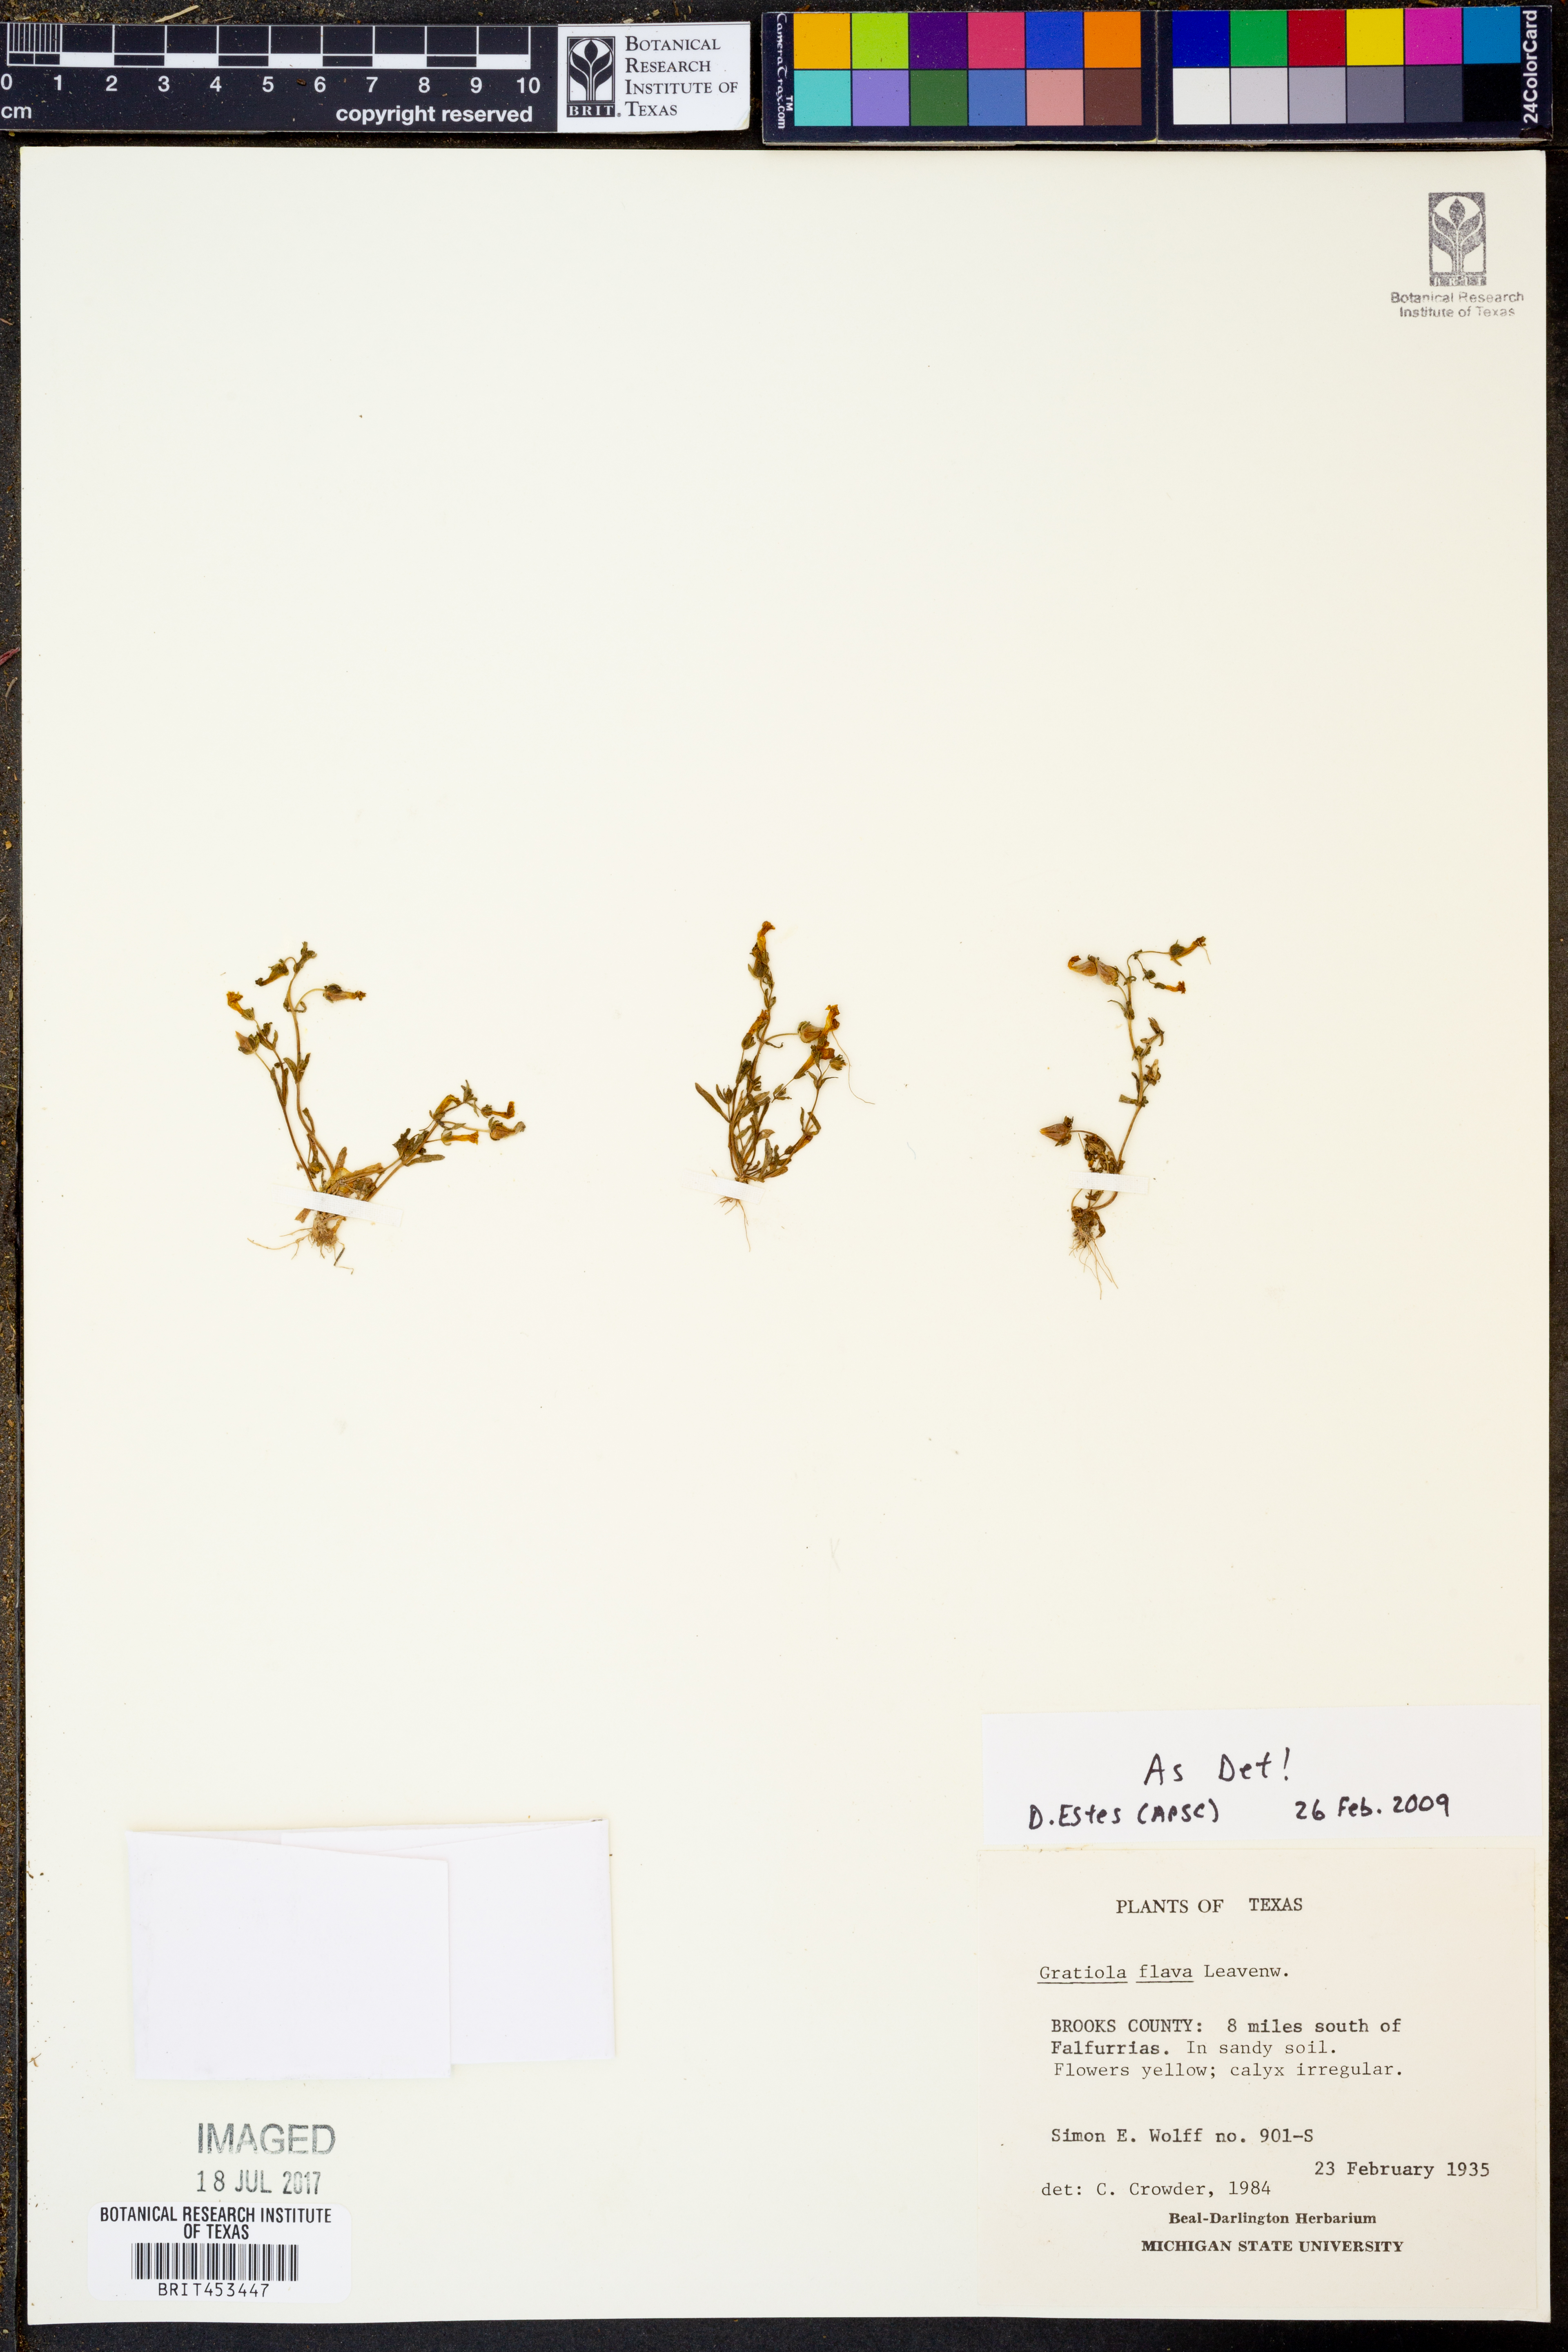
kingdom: Plantae
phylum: Tracheophyta
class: Magnoliopsida
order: Lamiales
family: Plantaginaceae
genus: Gratiola
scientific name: Gratiola flava
